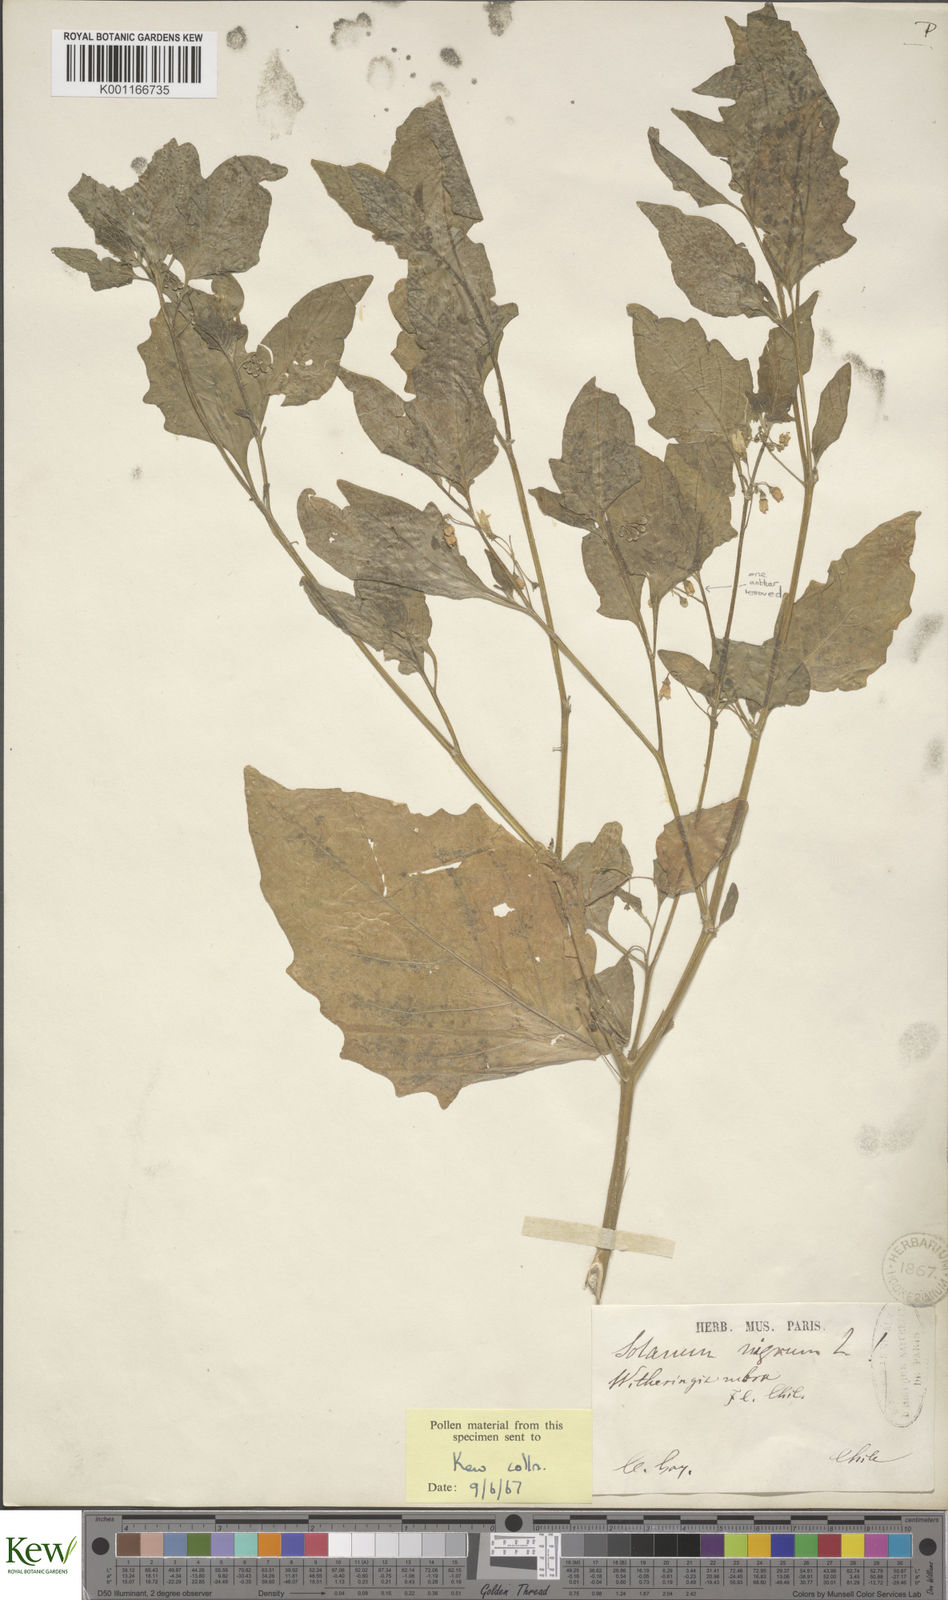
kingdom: Plantae
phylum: Tracheophyta
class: Magnoliopsida
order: Solanales
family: Solanaceae
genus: Solanum
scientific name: Solanum
